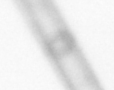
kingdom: Chromista
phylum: Ochrophyta
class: Bacillariophyceae
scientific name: Bacillariophyceae
